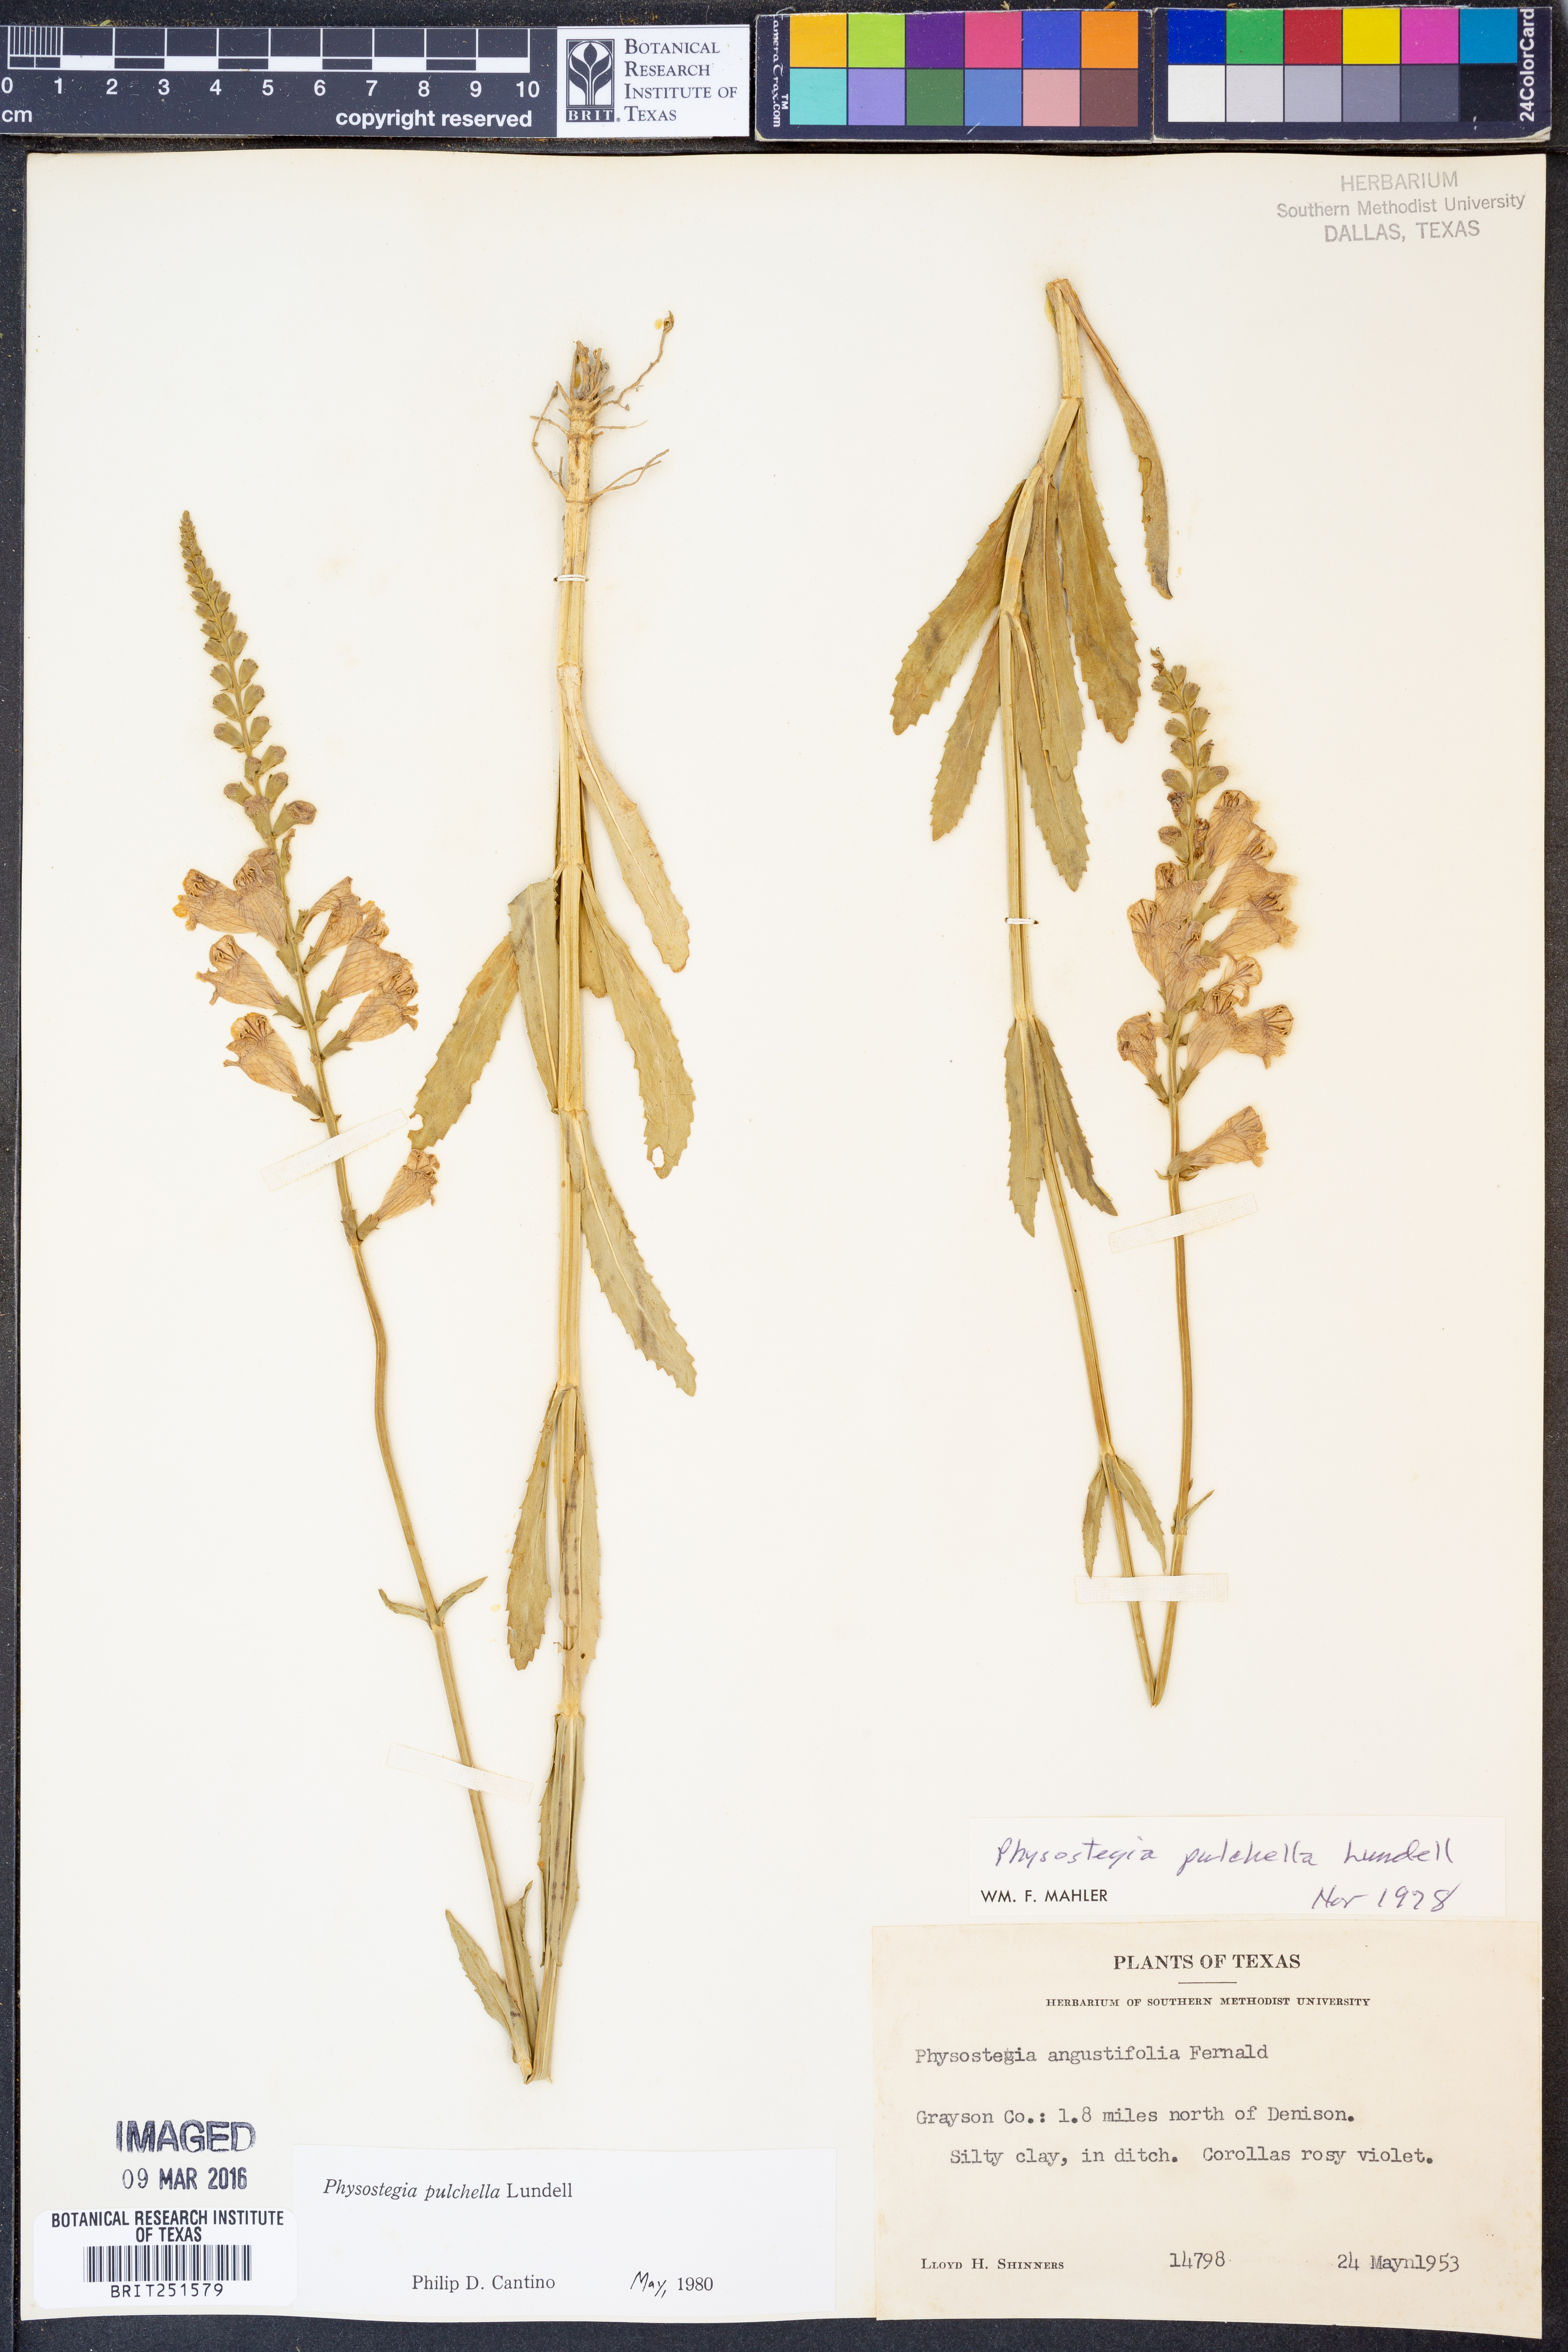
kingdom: Plantae
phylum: Tracheophyta
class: Magnoliopsida
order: Lamiales
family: Lamiaceae
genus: Physostegia
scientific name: Physostegia pulchella
